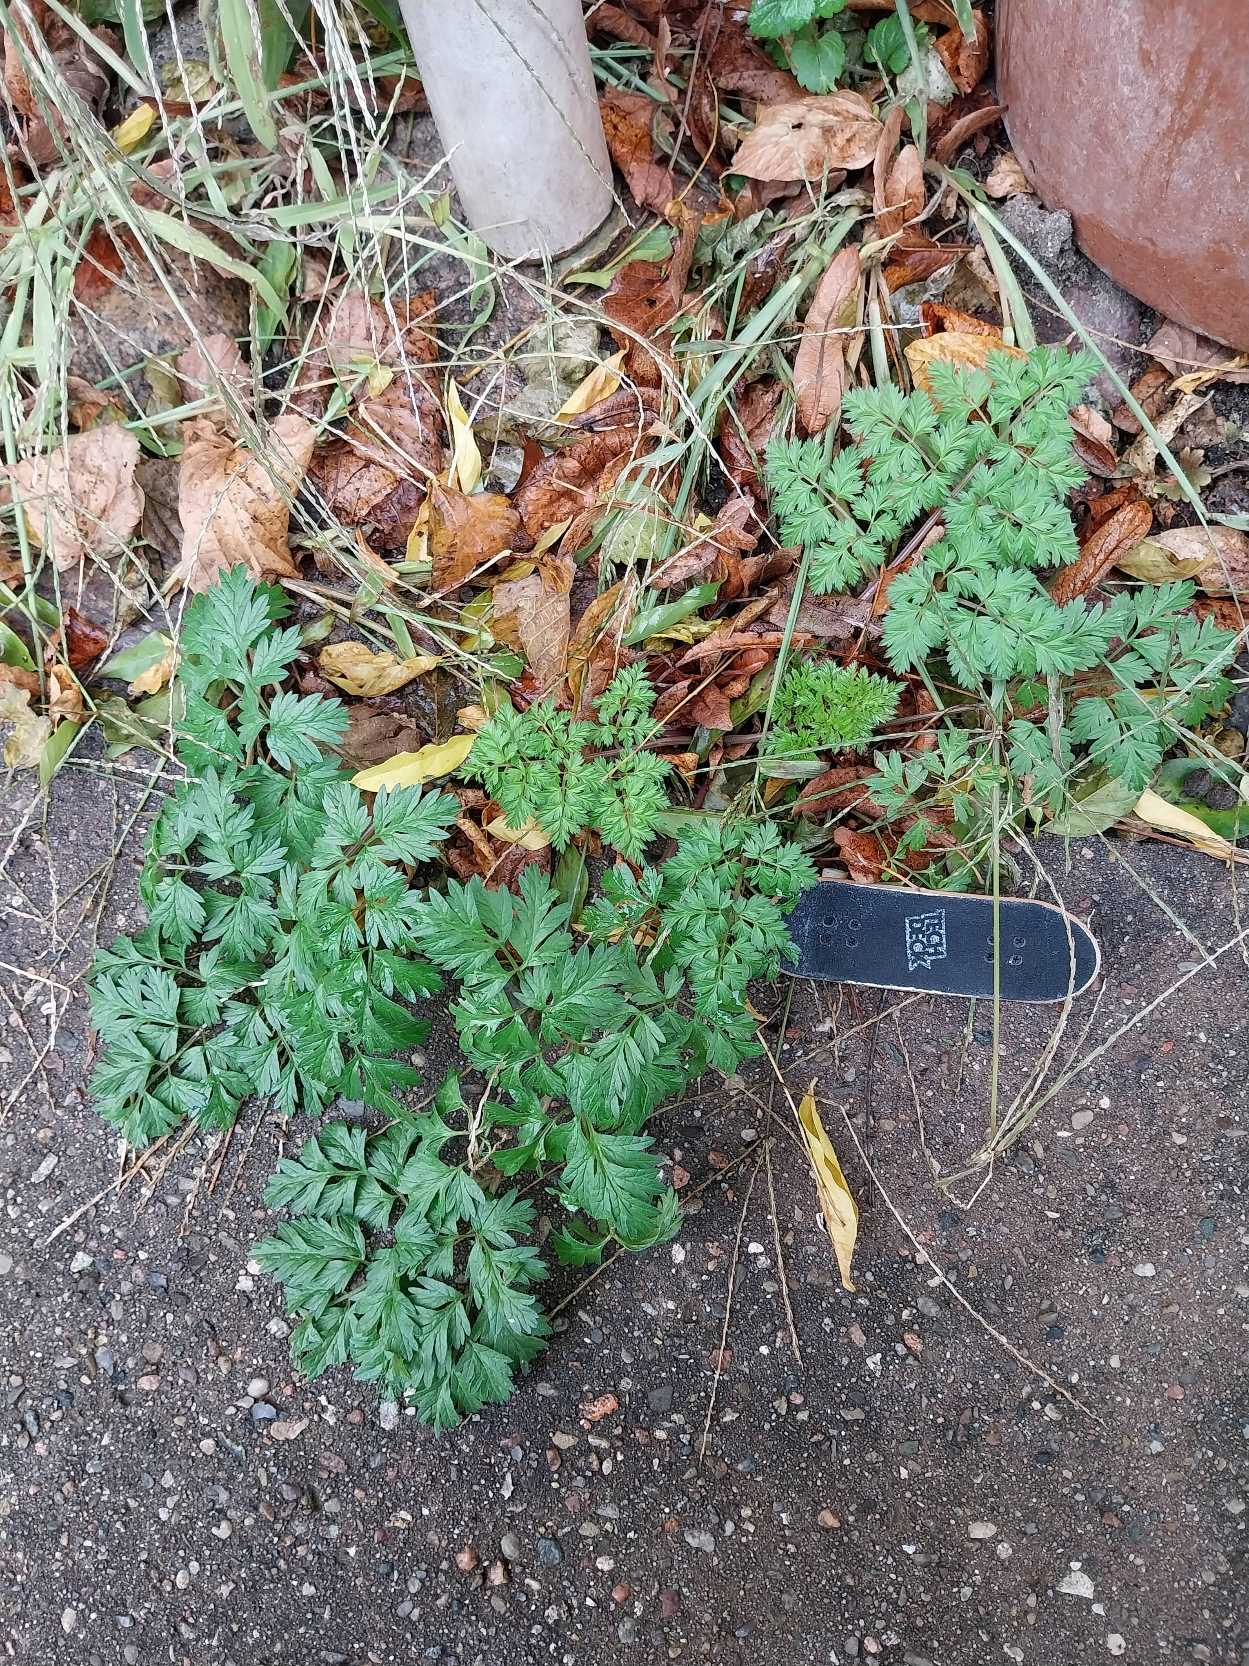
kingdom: Plantae
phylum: Tracheophyta
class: Magnoliopsida
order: Apiales
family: Apiaceae
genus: Anthriscus
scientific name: Anthriscus sylvestris
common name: Vild kørvel
